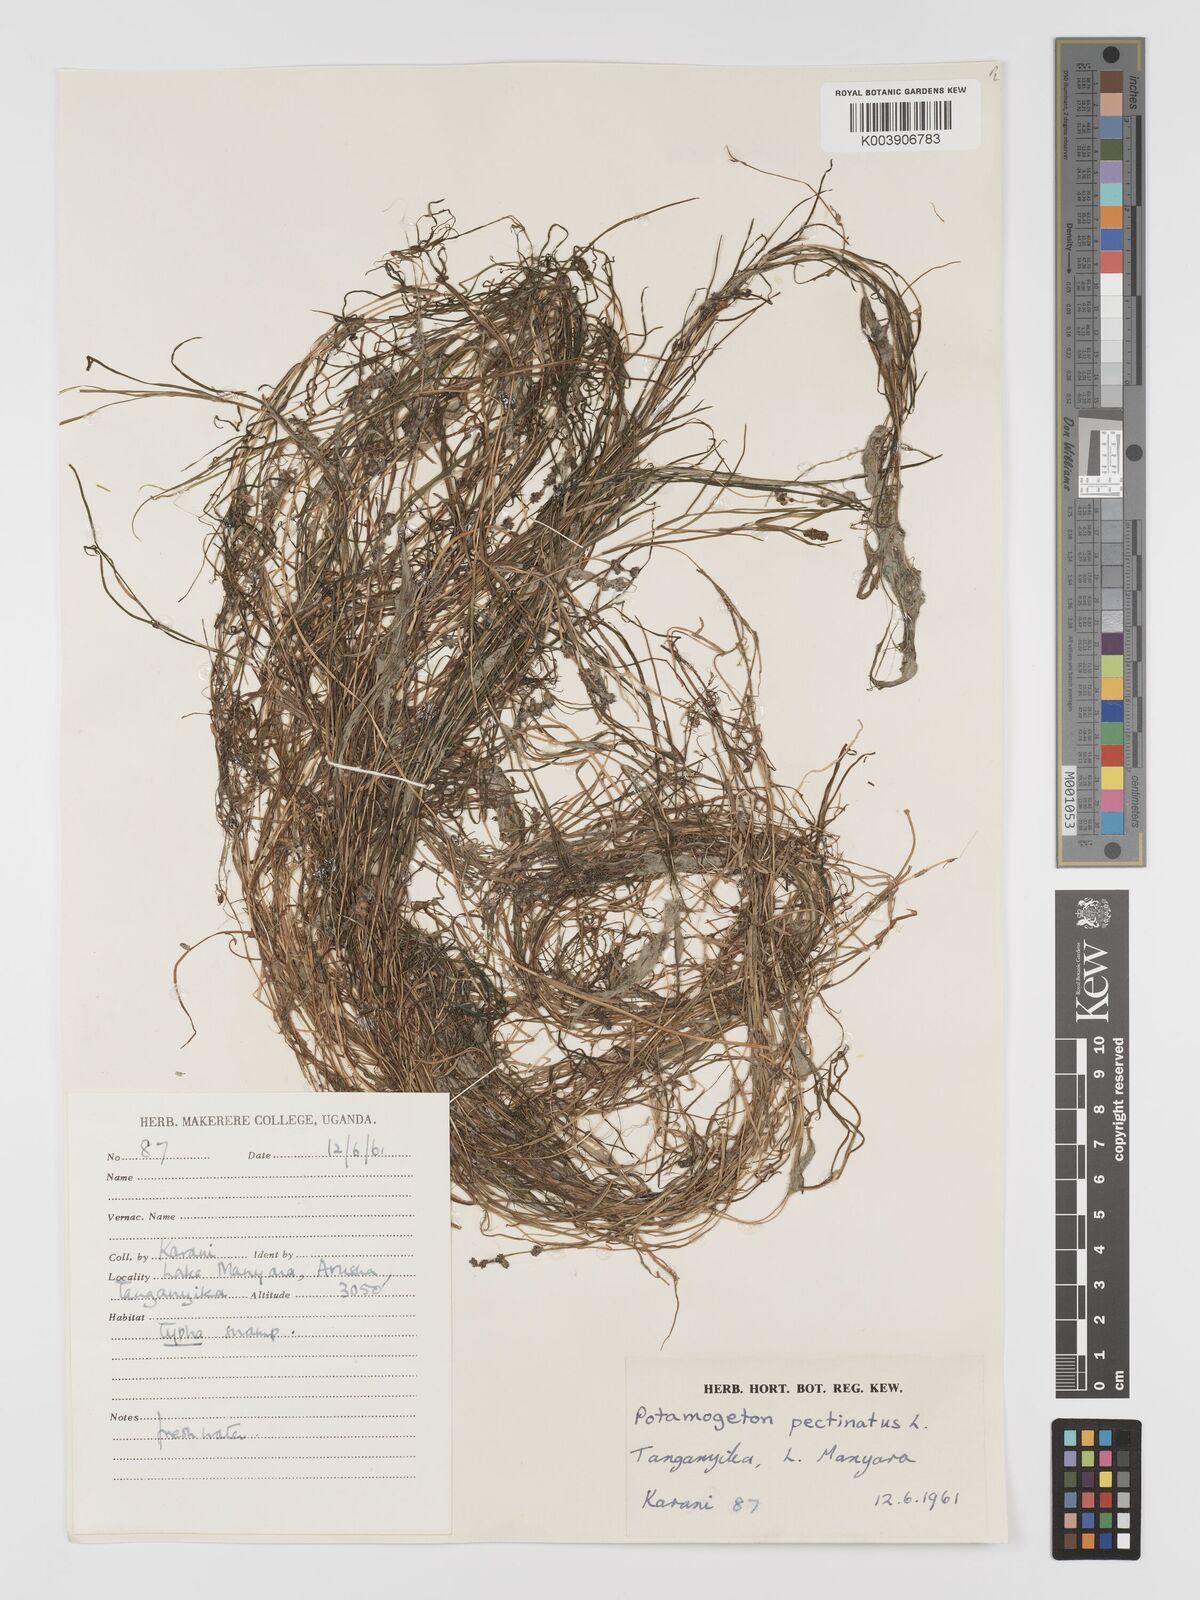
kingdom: Plantae
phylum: Tracheophyta
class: Liliopsida
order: Alismatales
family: Potamogetonaceae
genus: Stuckenia
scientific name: Stuckenia pectinata
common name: Sago pondweed
